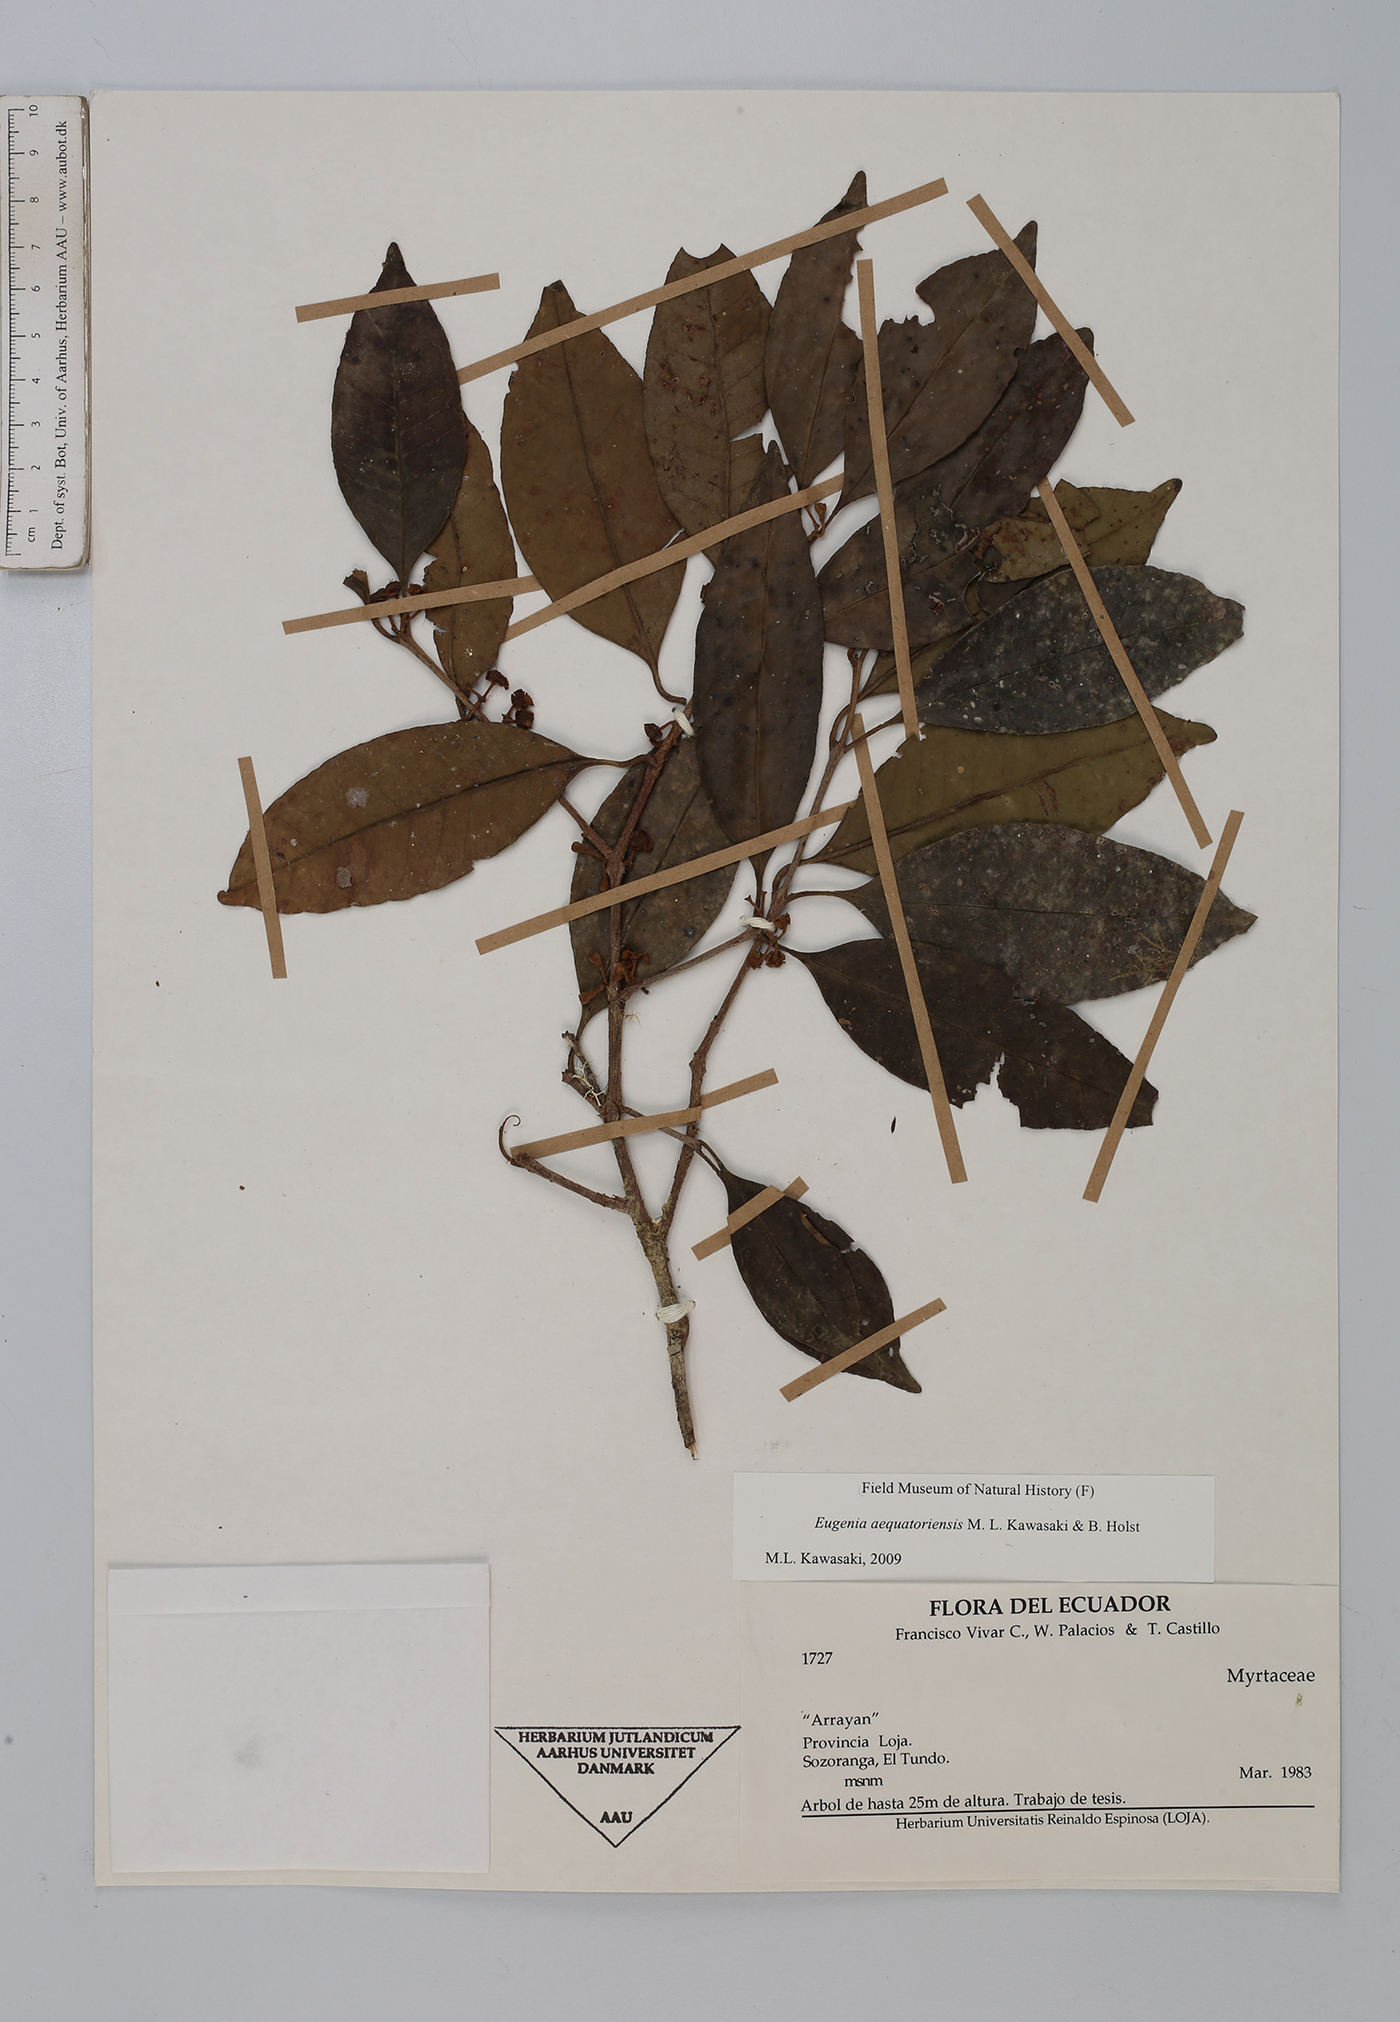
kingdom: Plantae
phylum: Tracheophyta
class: Magnoliopsida
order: Myrtales
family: Myrtaceae
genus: Eugenia
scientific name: Eugenia aequatoriensis
